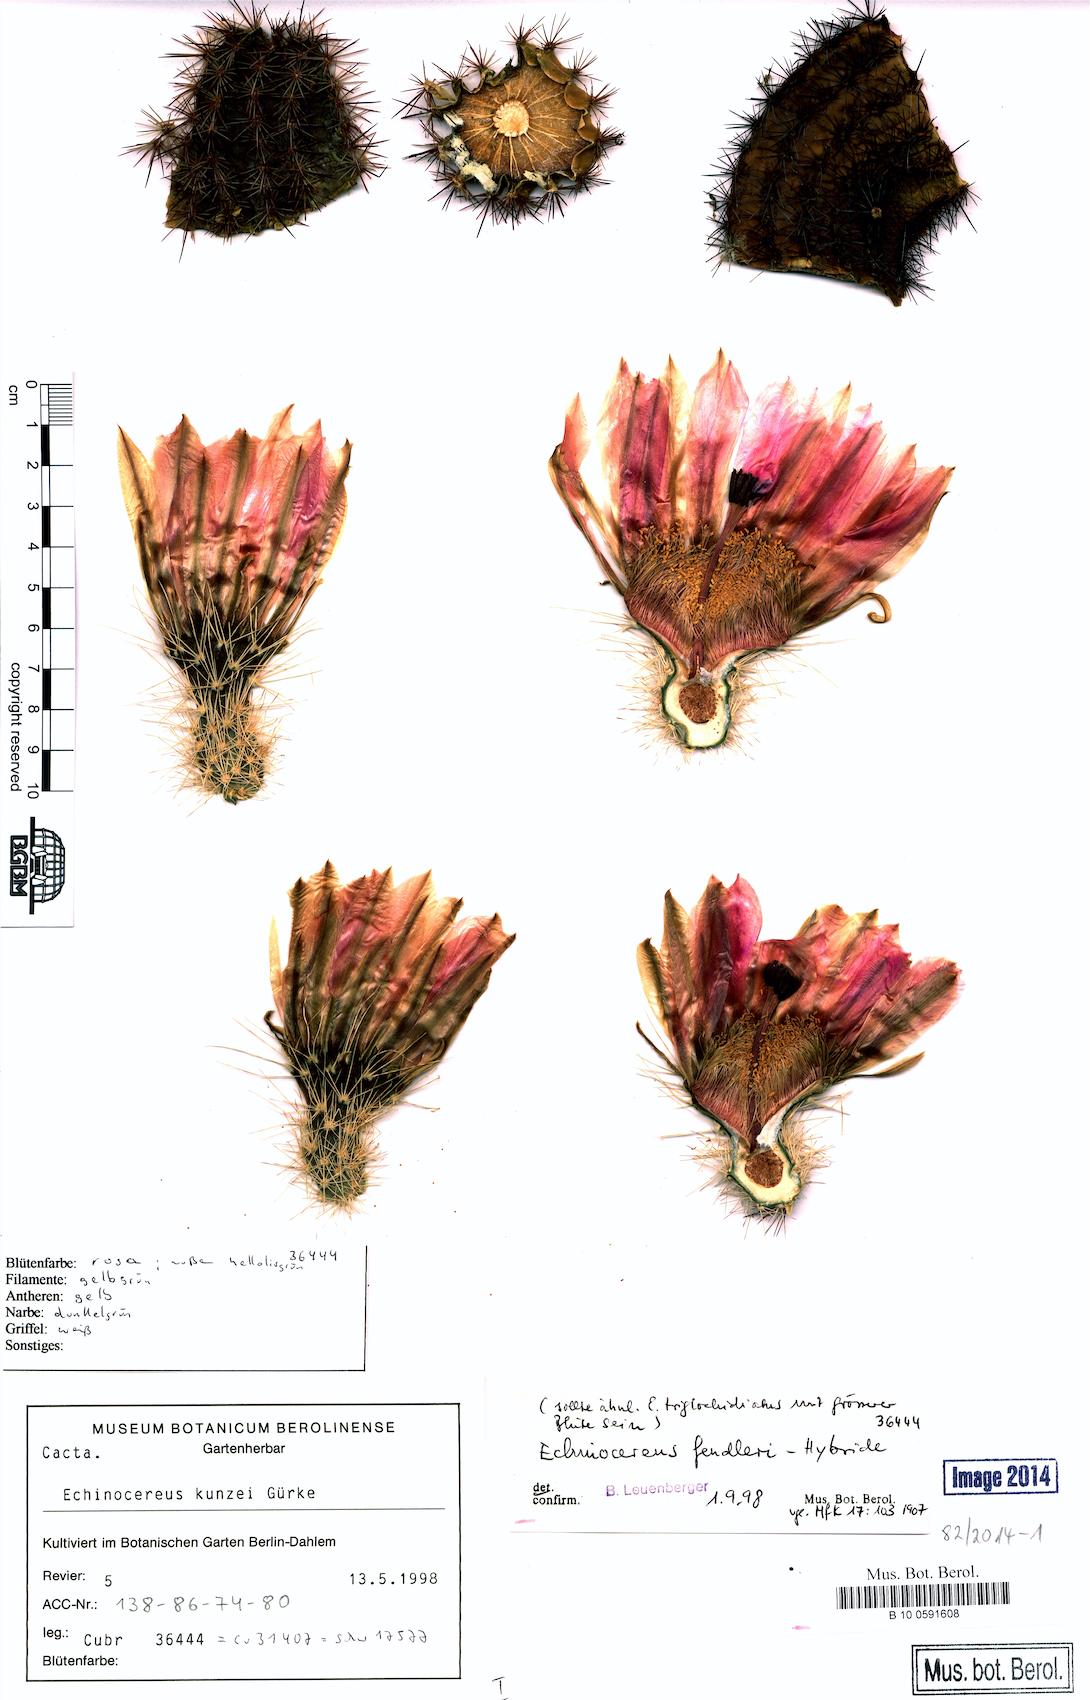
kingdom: Plantae
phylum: Tracheophyta
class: Magnoliopsida
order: Caryophyllales
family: Cactaceae
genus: Echinocereus
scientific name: Echinocereus kunzei
